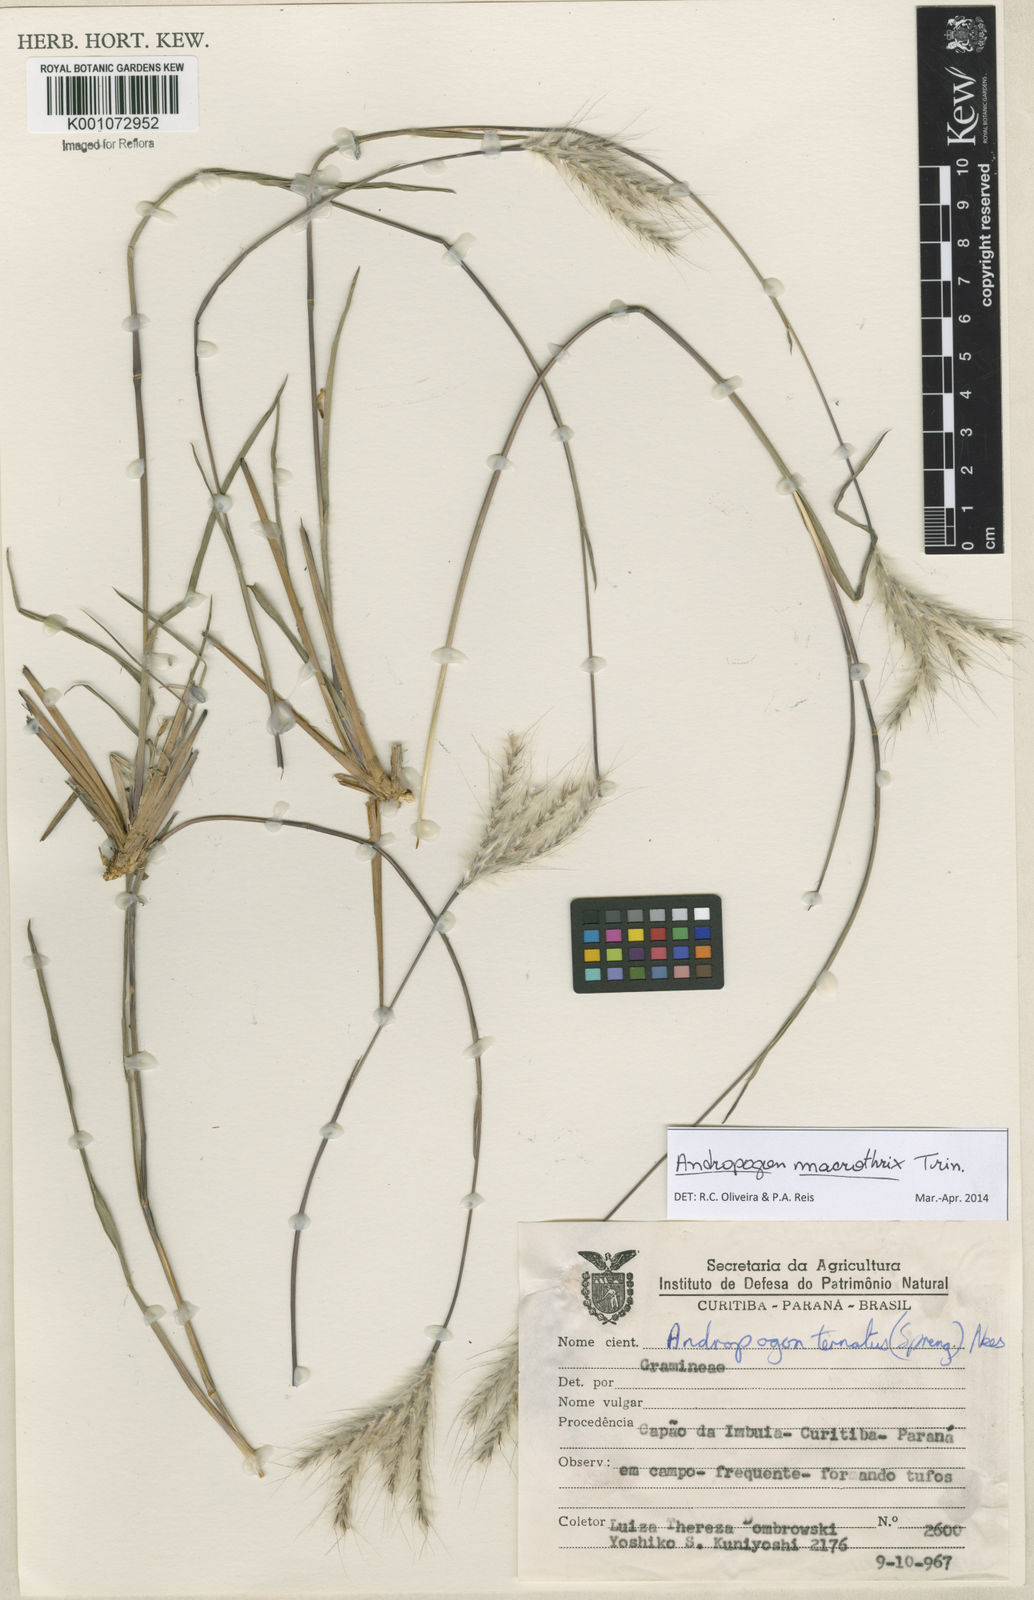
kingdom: Plantae
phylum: Tracheophyta
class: Liliopsida
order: Poales
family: Poaceae
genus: Andropogon
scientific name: Andropogon macrothrix
